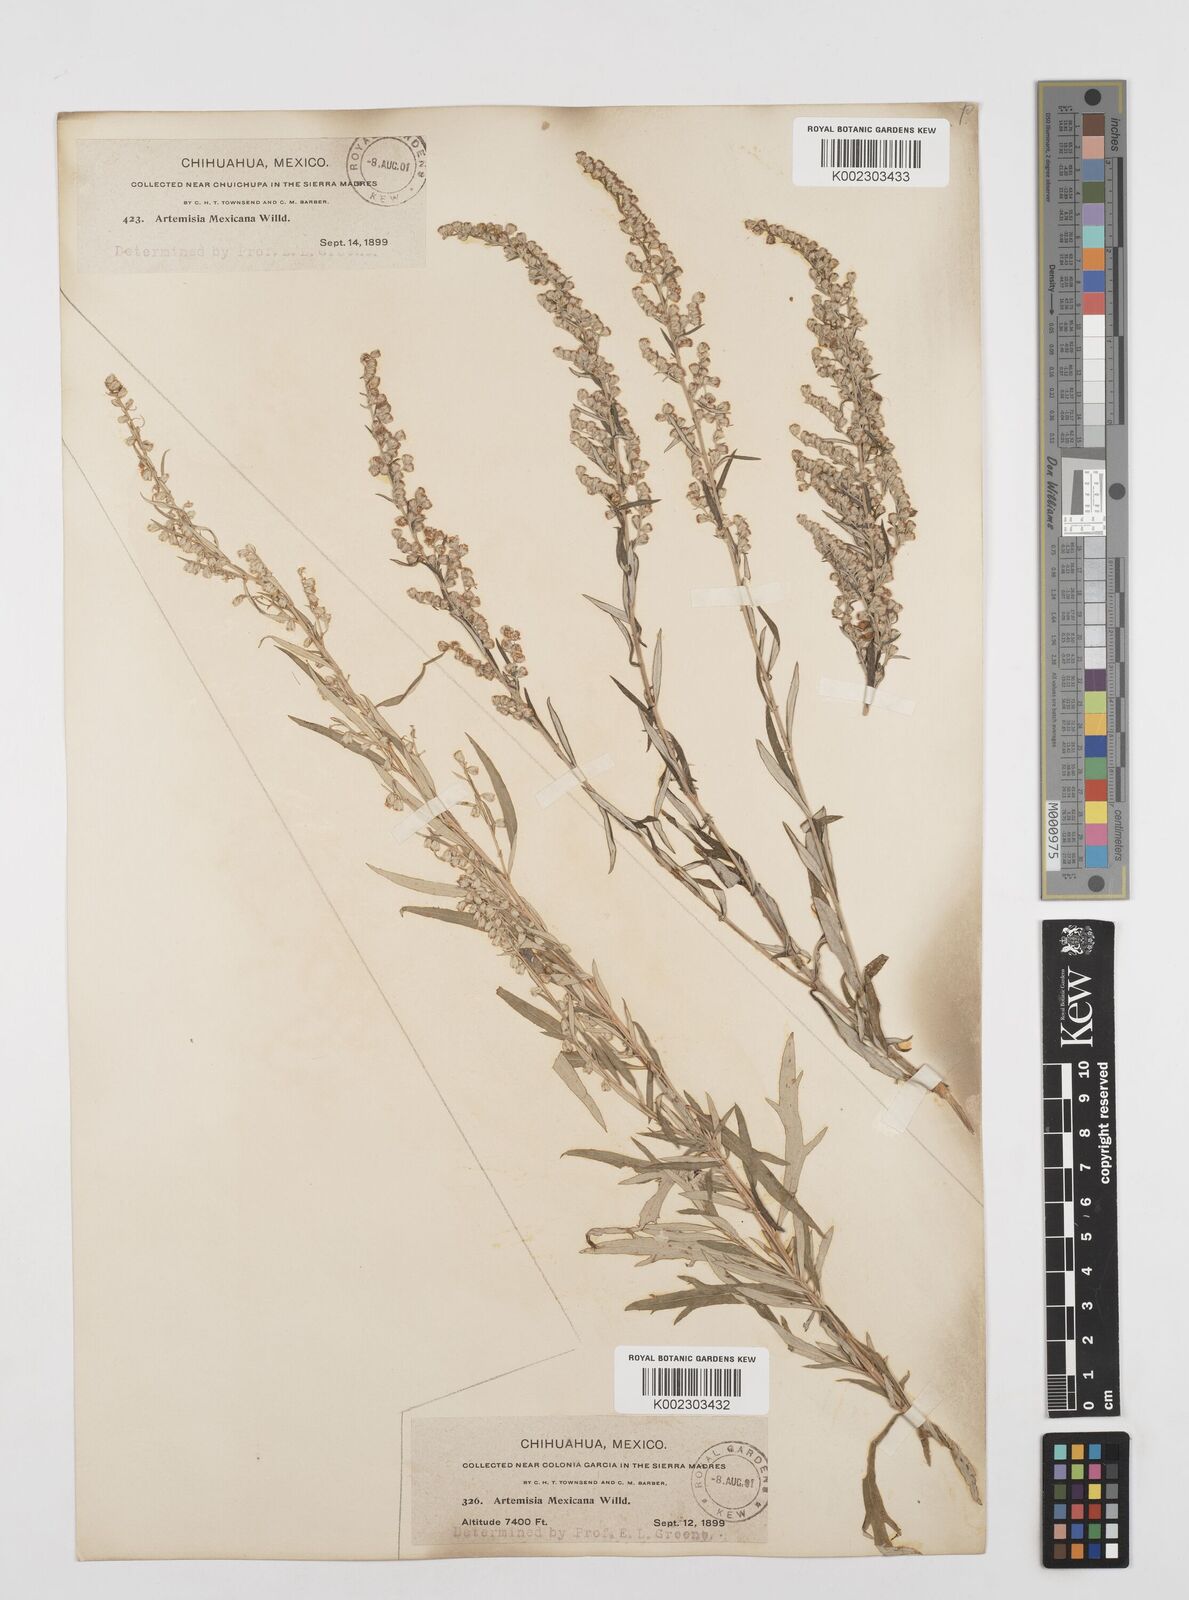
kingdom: Plantae
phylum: Tracheophyta
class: Magnoliopsida
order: Asterales
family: Asteraceae
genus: Artemisia
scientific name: Artemisia ludoviciana
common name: Western mugwort
